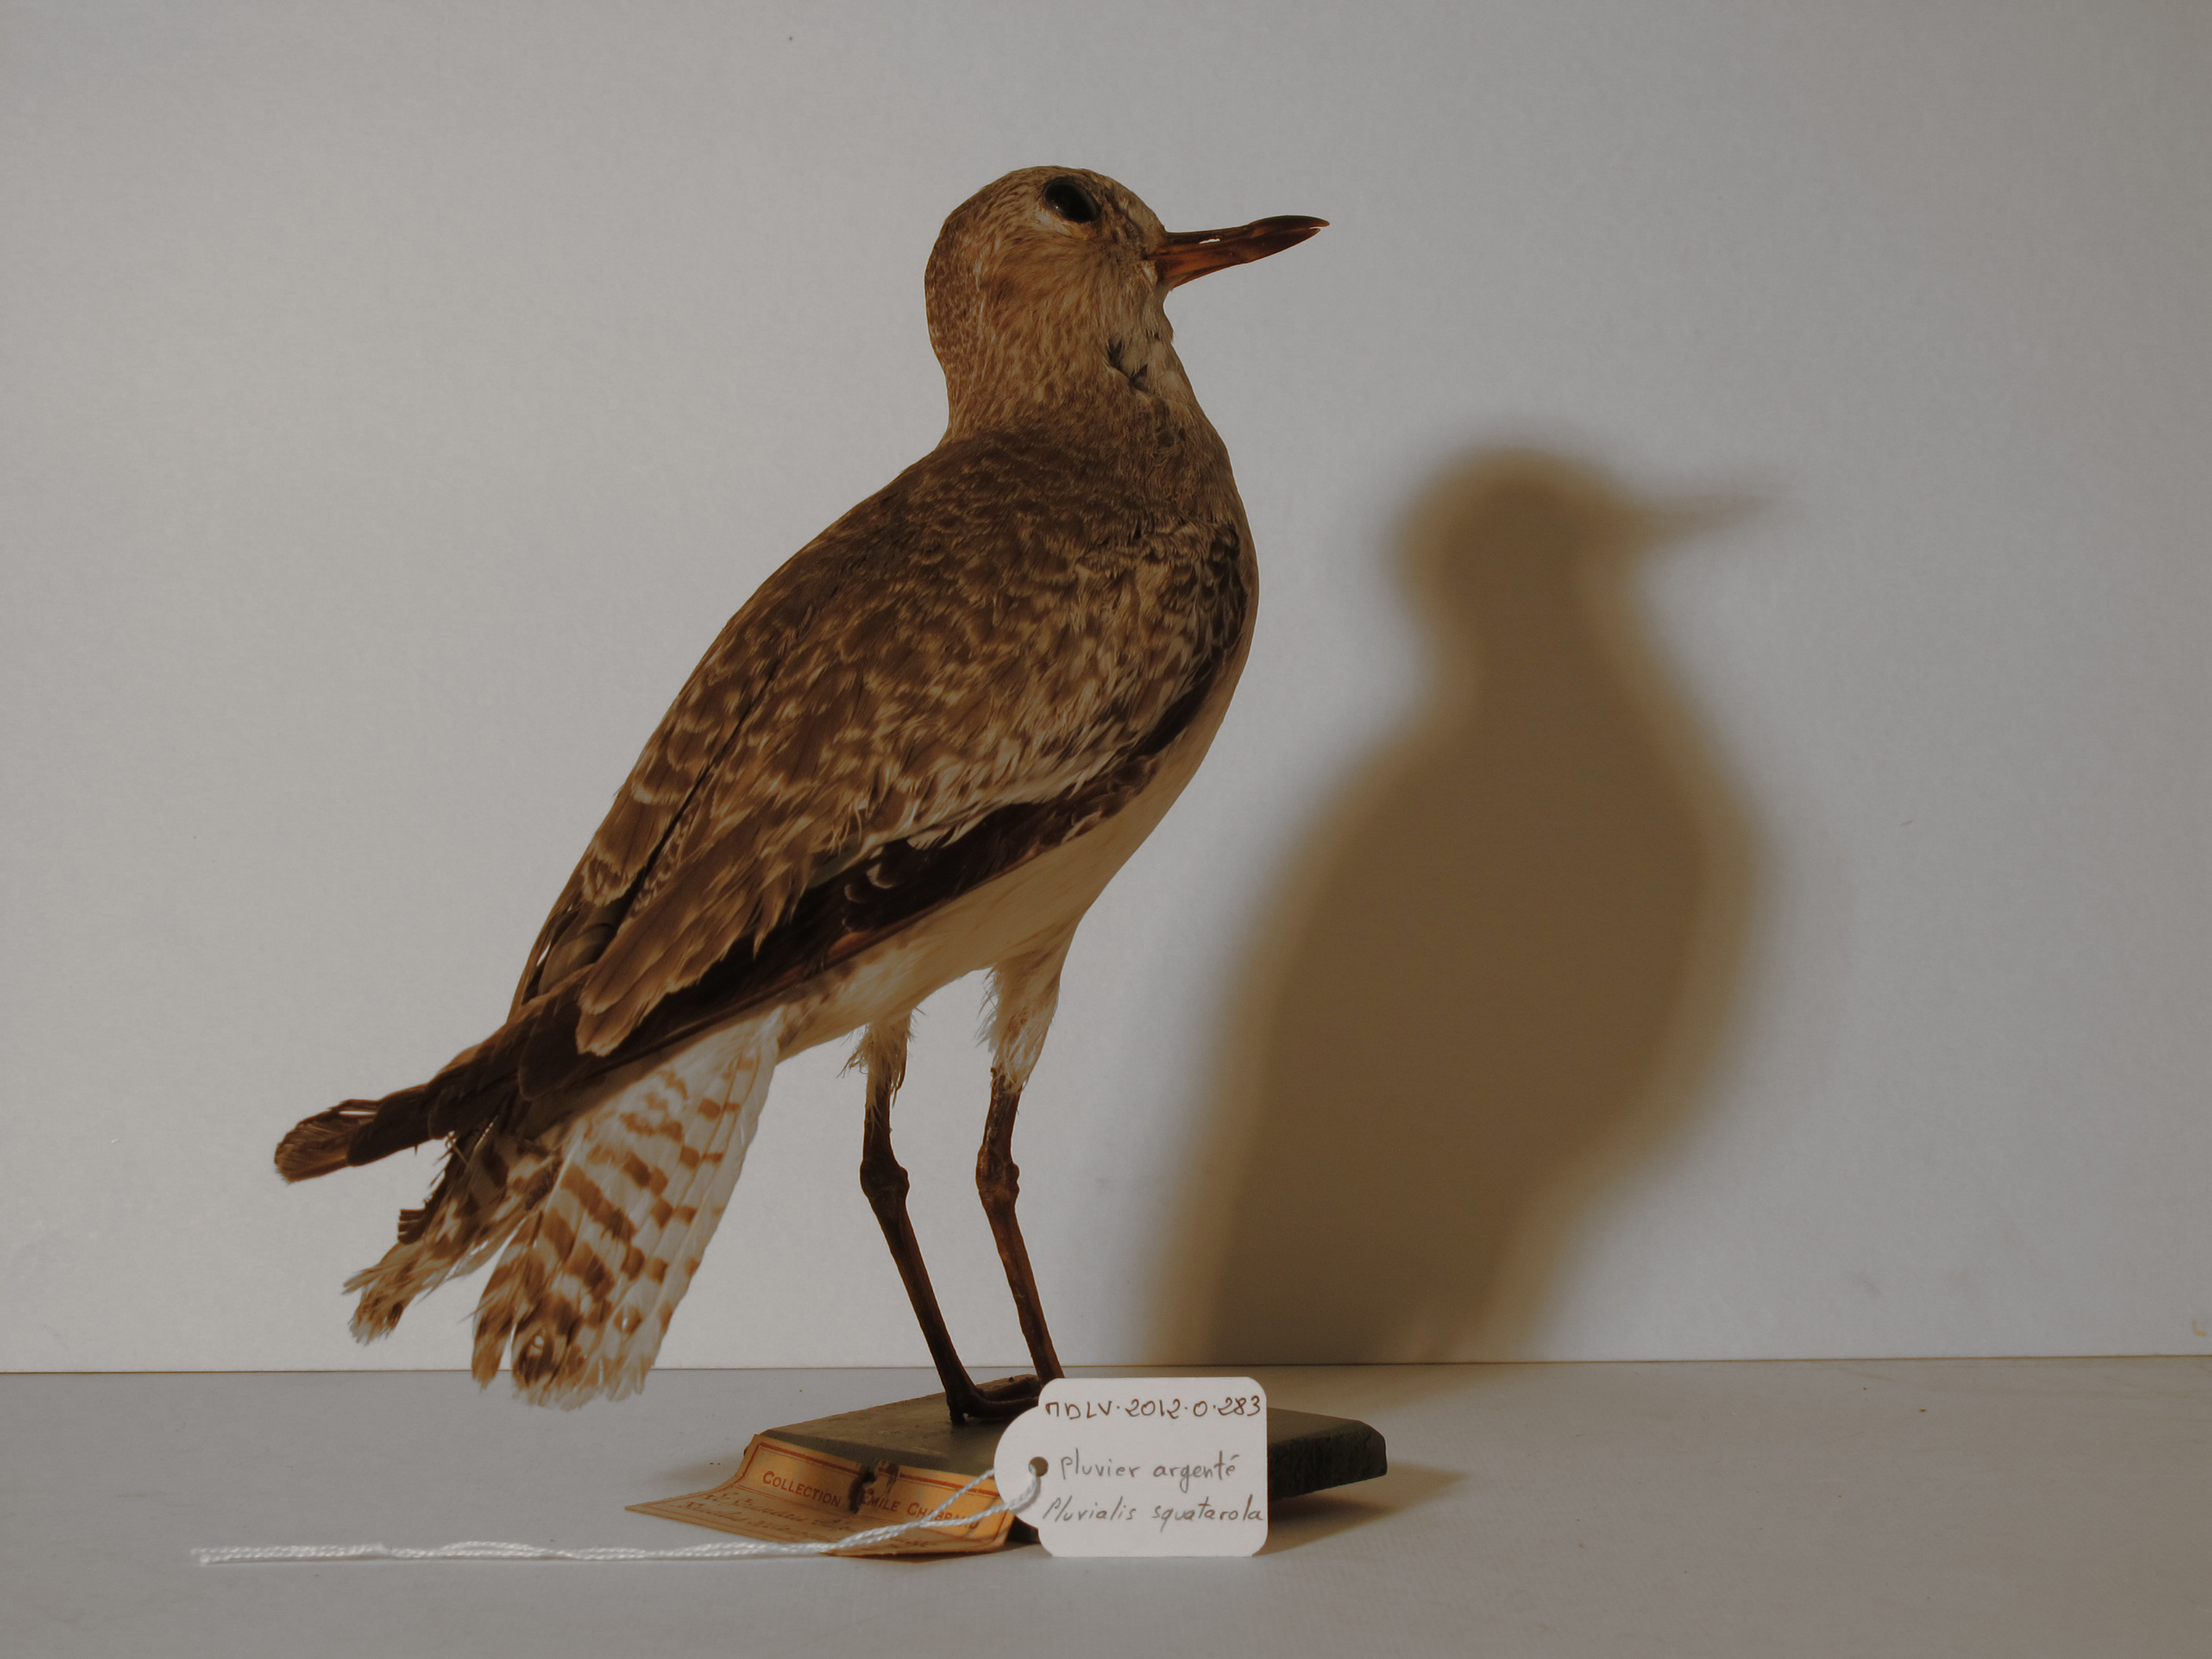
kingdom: Animalia
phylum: Chordata
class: Aves
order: Charadriiformes
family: Charadriidae
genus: Pluvialis
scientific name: Pluvialis squatarola
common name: Grey Plover
